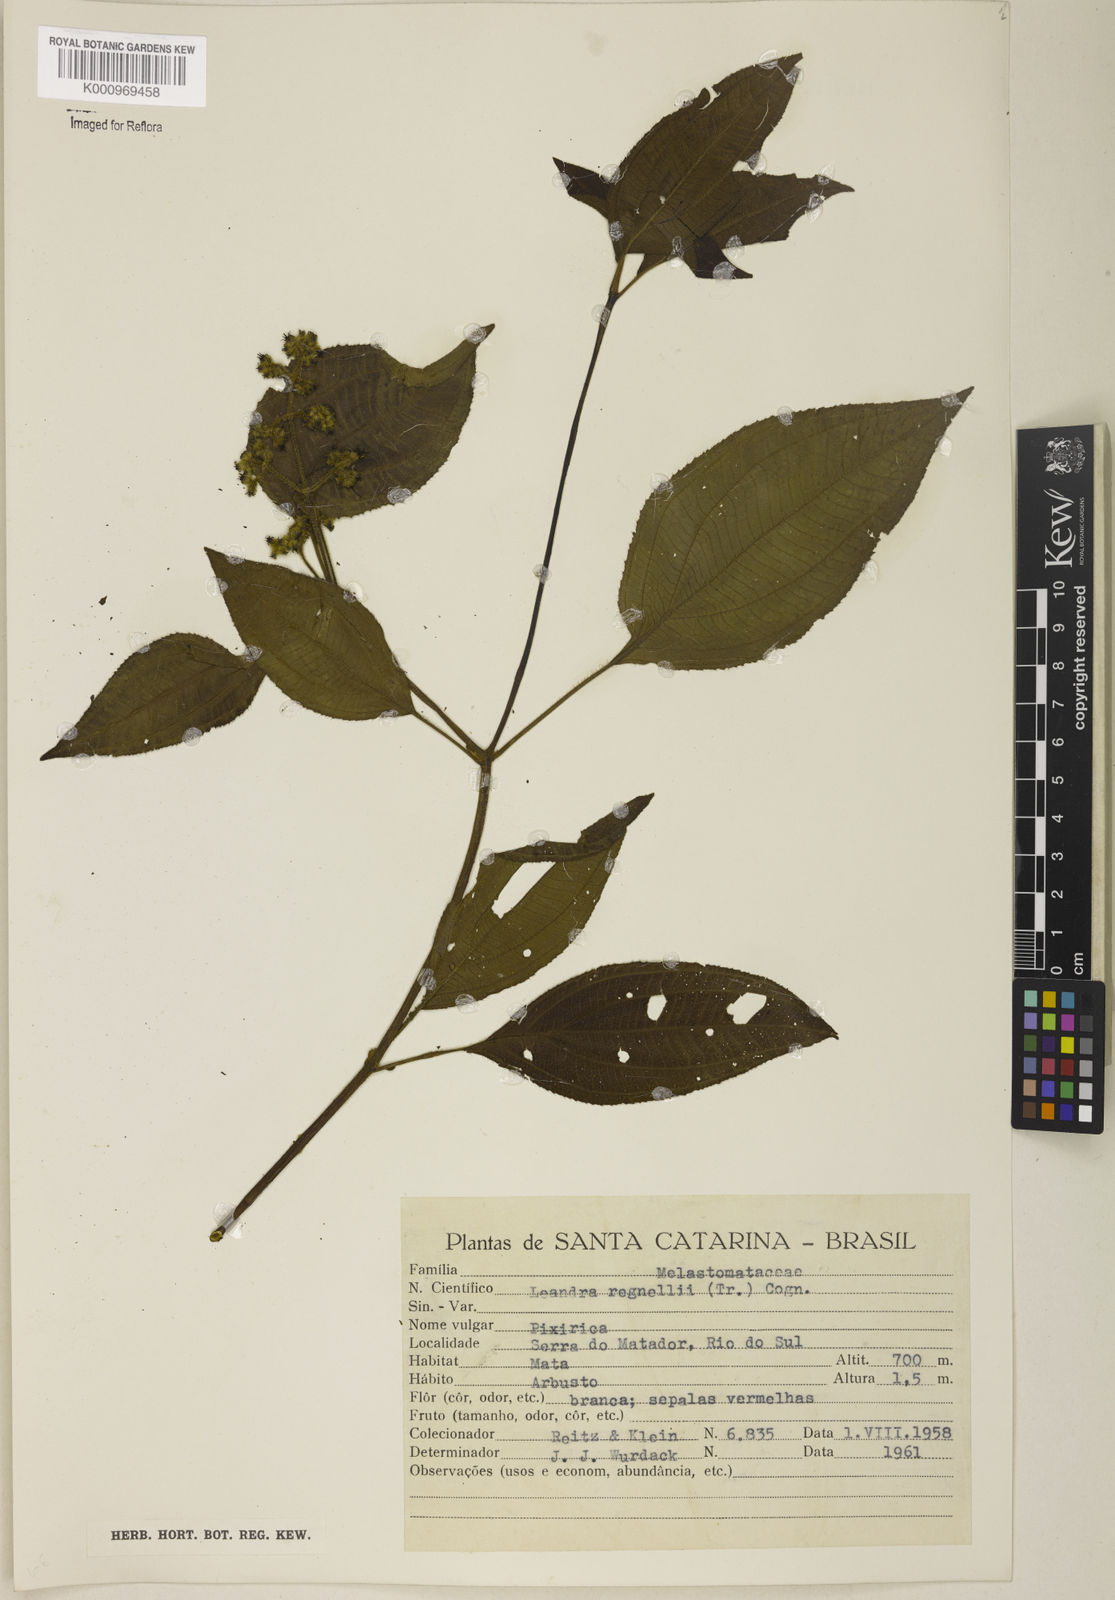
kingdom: Plantae
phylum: Tracheophyta
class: Magnoliopsida
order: Myrtales
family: Melastomataceae
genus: Miconia
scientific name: Miconia alterninervia
